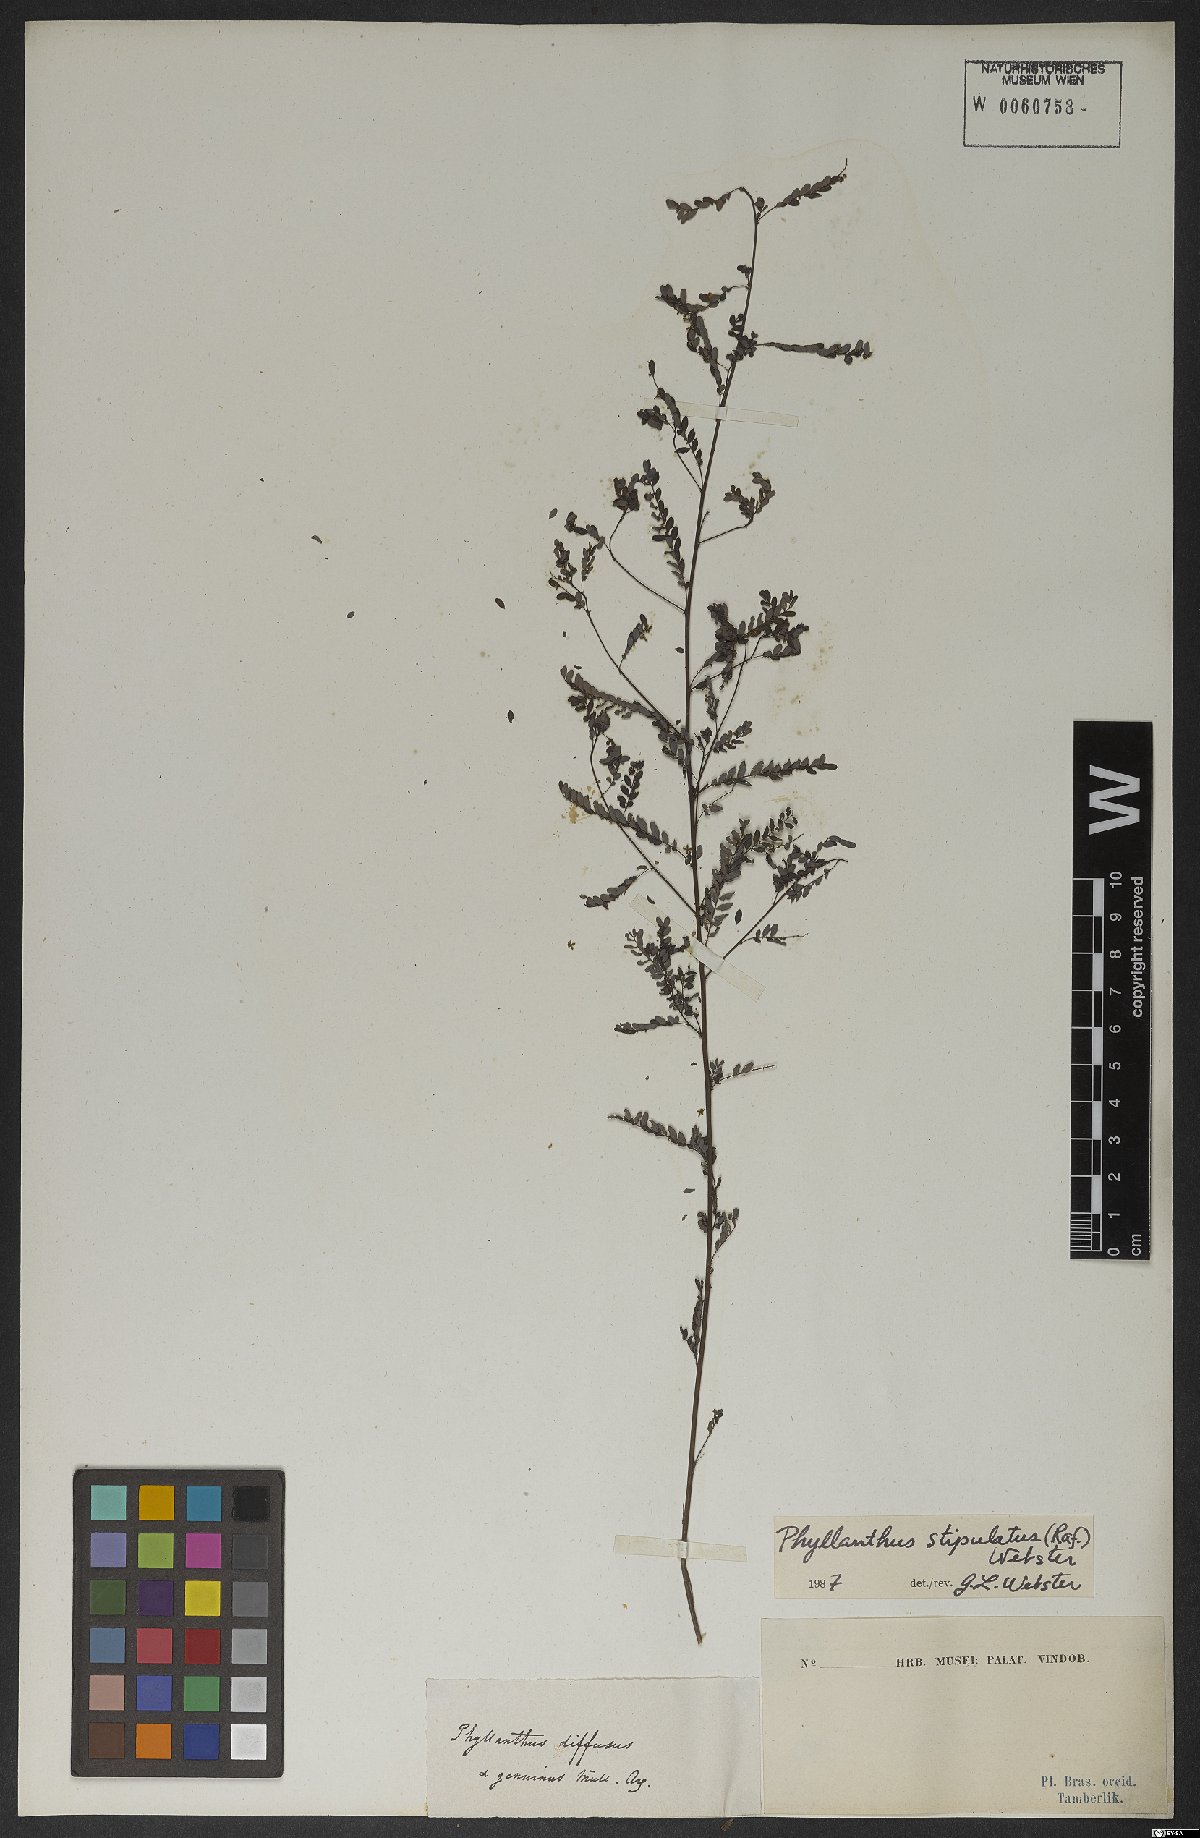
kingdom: Plantae
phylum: Tracheophyta
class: Magnoliopsida
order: Malpighiales
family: Phyllanthaceae
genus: Phyllanthus
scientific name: Phyllanthus stipulatus
